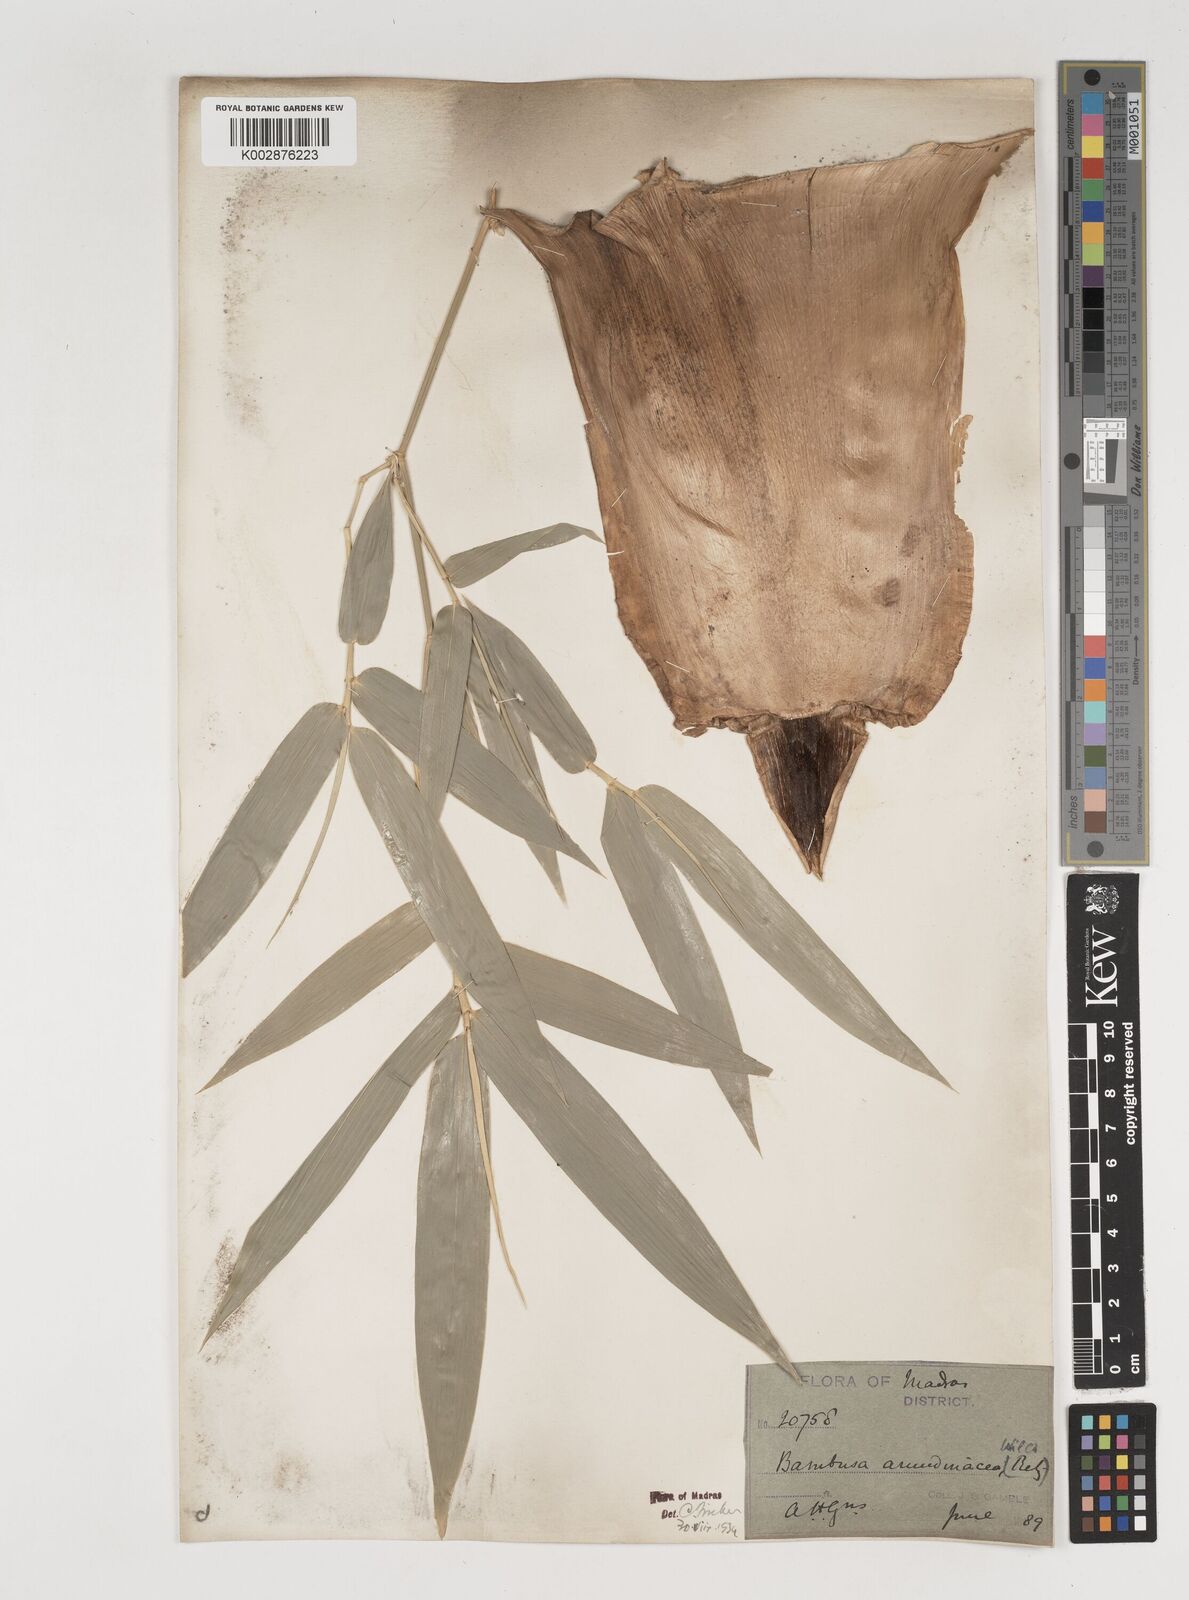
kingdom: Plantae
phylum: Tracheophyta
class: Liliopsida
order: Poales
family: Poaceae
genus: Bambusa
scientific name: Bambusa bambos
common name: Indian thorny bamboo
